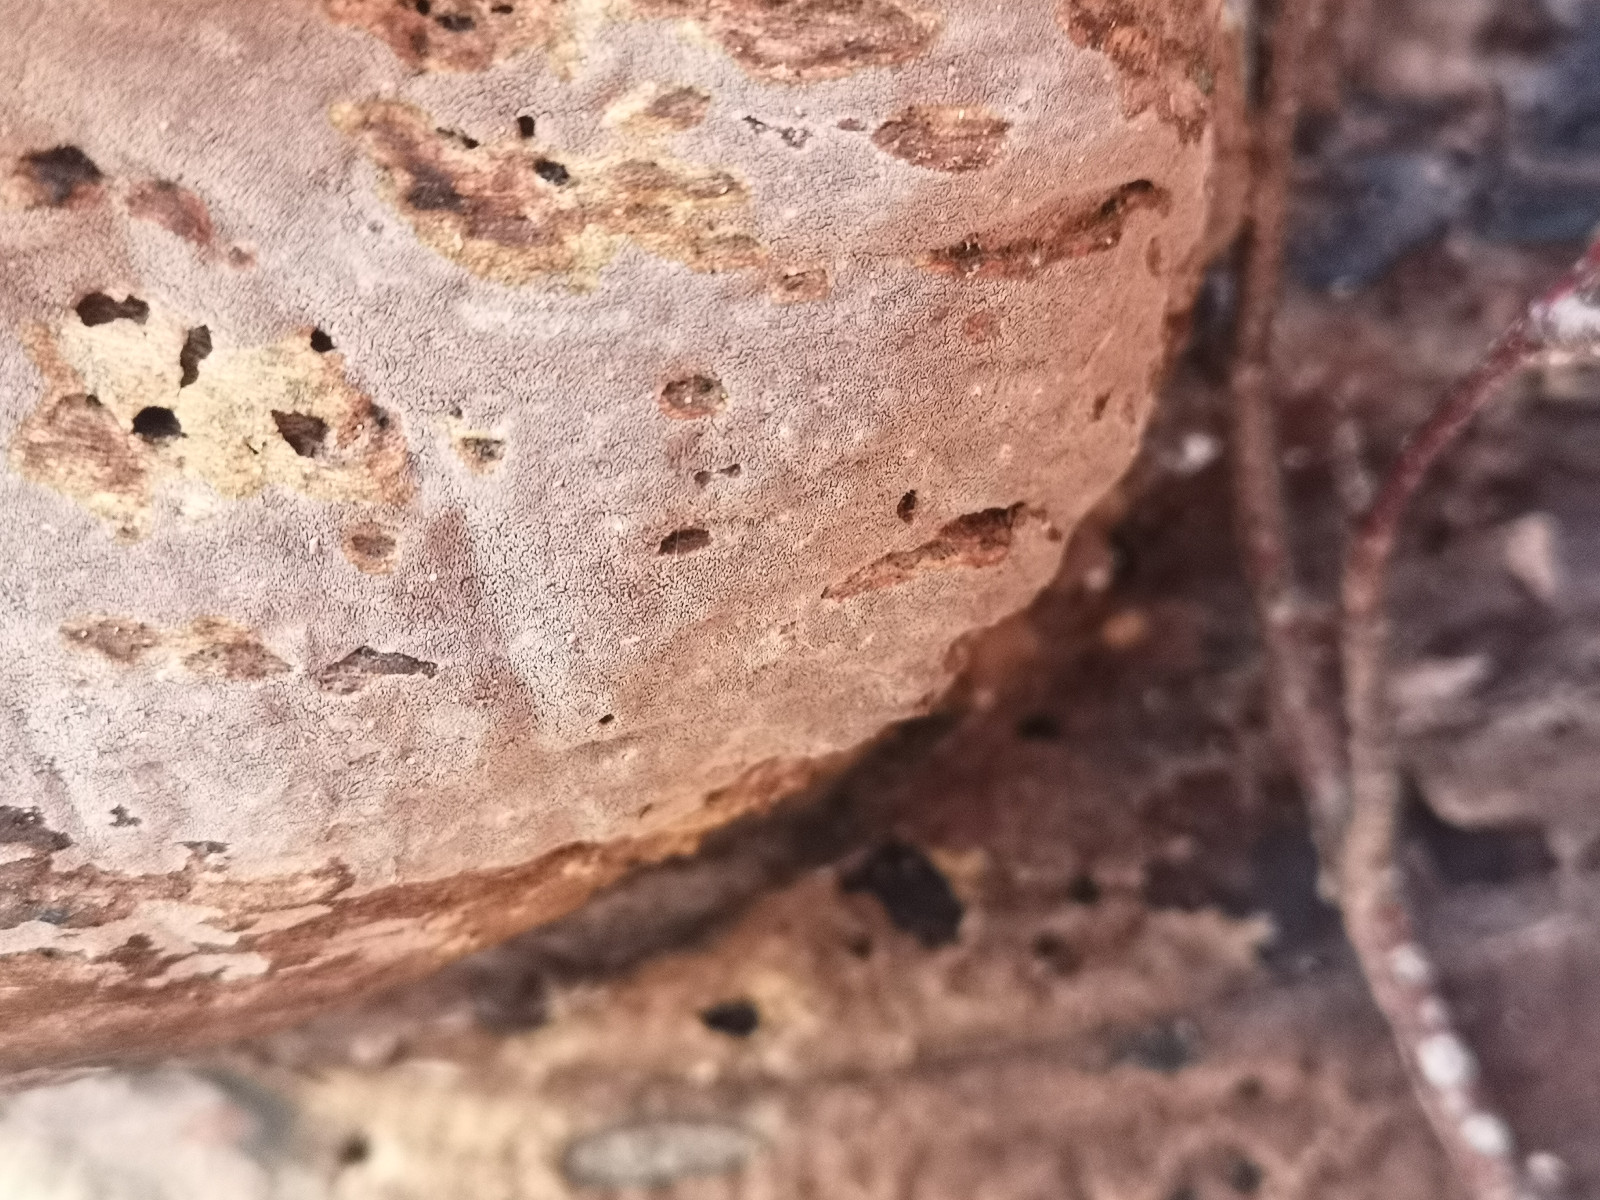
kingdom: Fungi
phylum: Basidiomycota
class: Agaricomycetes
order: Agaricales
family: Pleurotaceae
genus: Resupinatus
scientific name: Resupinatus poriaeformis
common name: tæpperør
